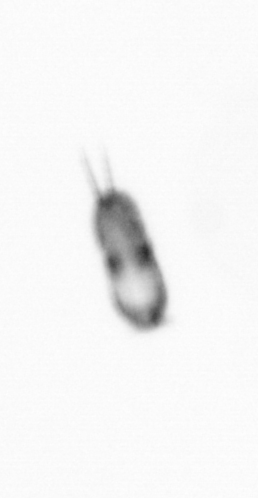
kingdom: Animalia
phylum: Arthropoda
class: Copepoda
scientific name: Copepoda
